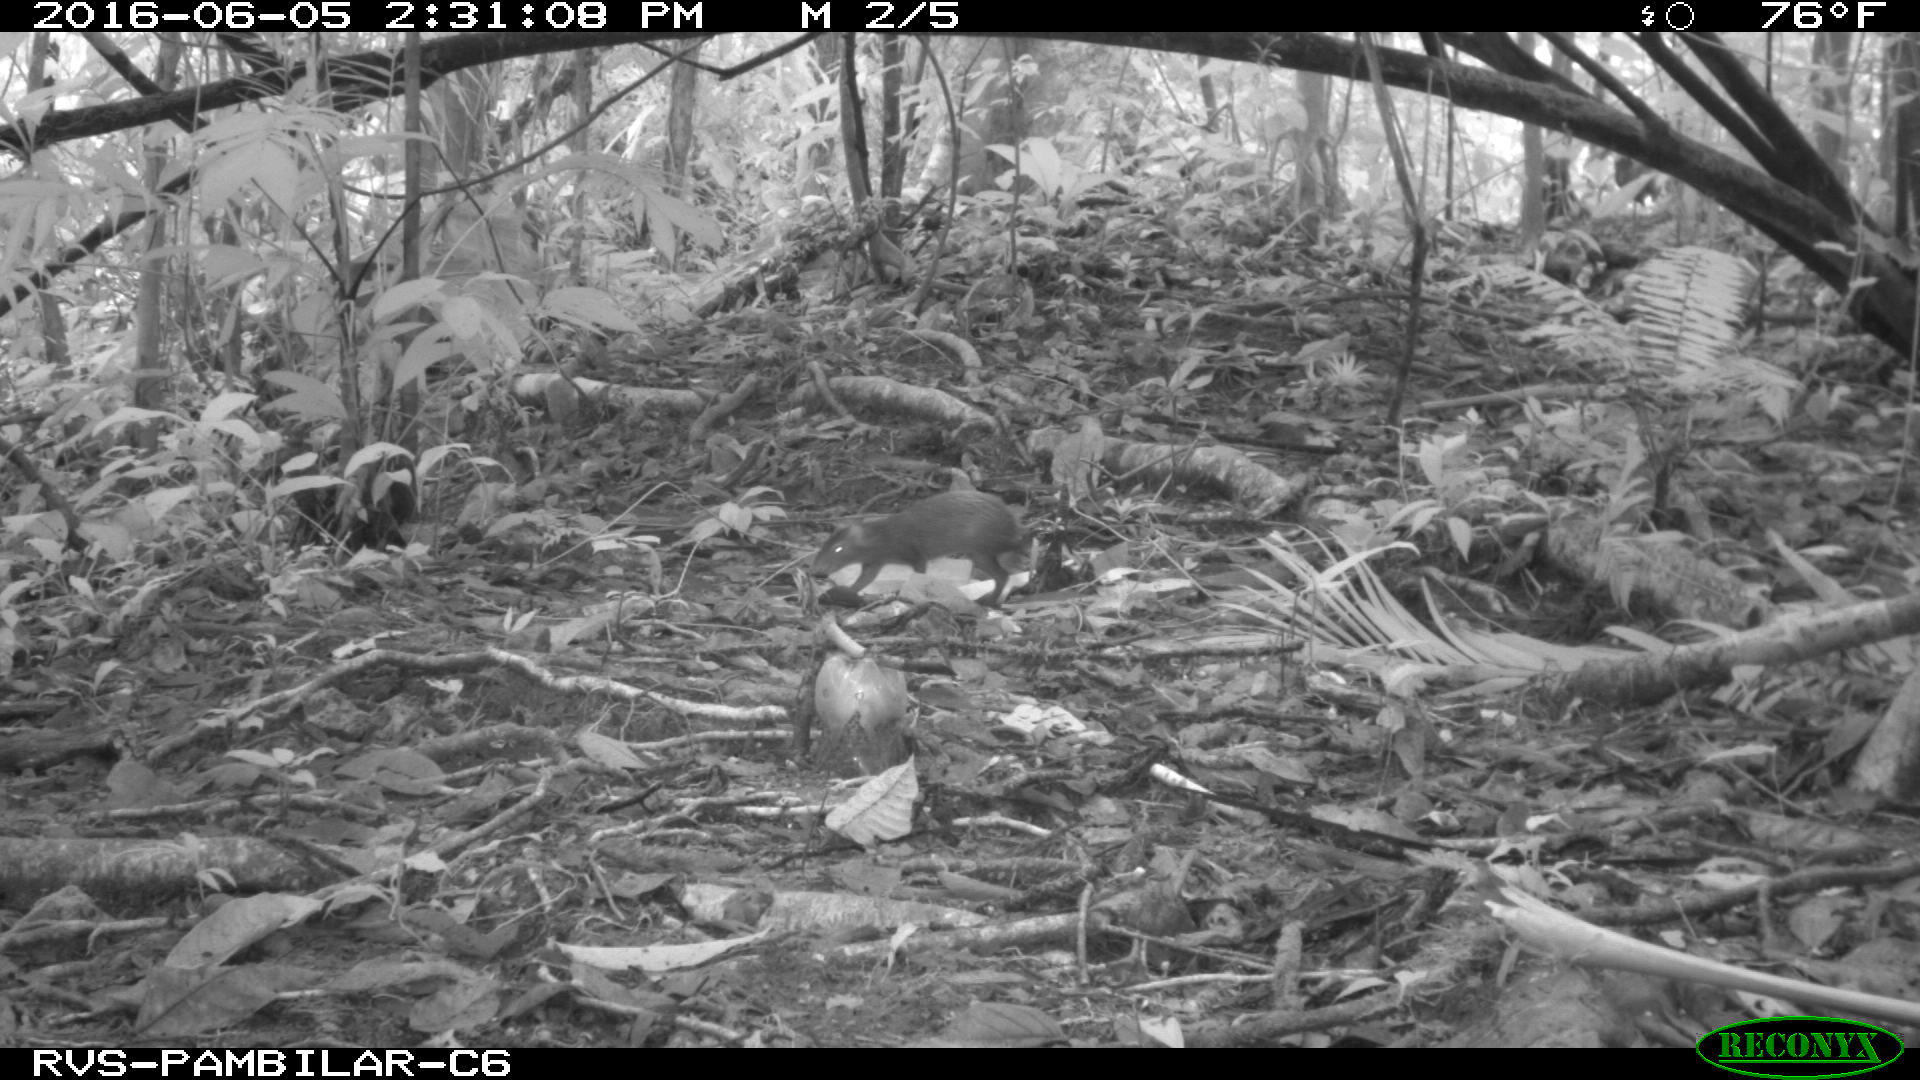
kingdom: Animalia
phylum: Chordata
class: Mammalia
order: Rodentia
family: Dasyproctidae
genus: Dasyprocta
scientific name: Dasyprocta punctata
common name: Central american agouti
